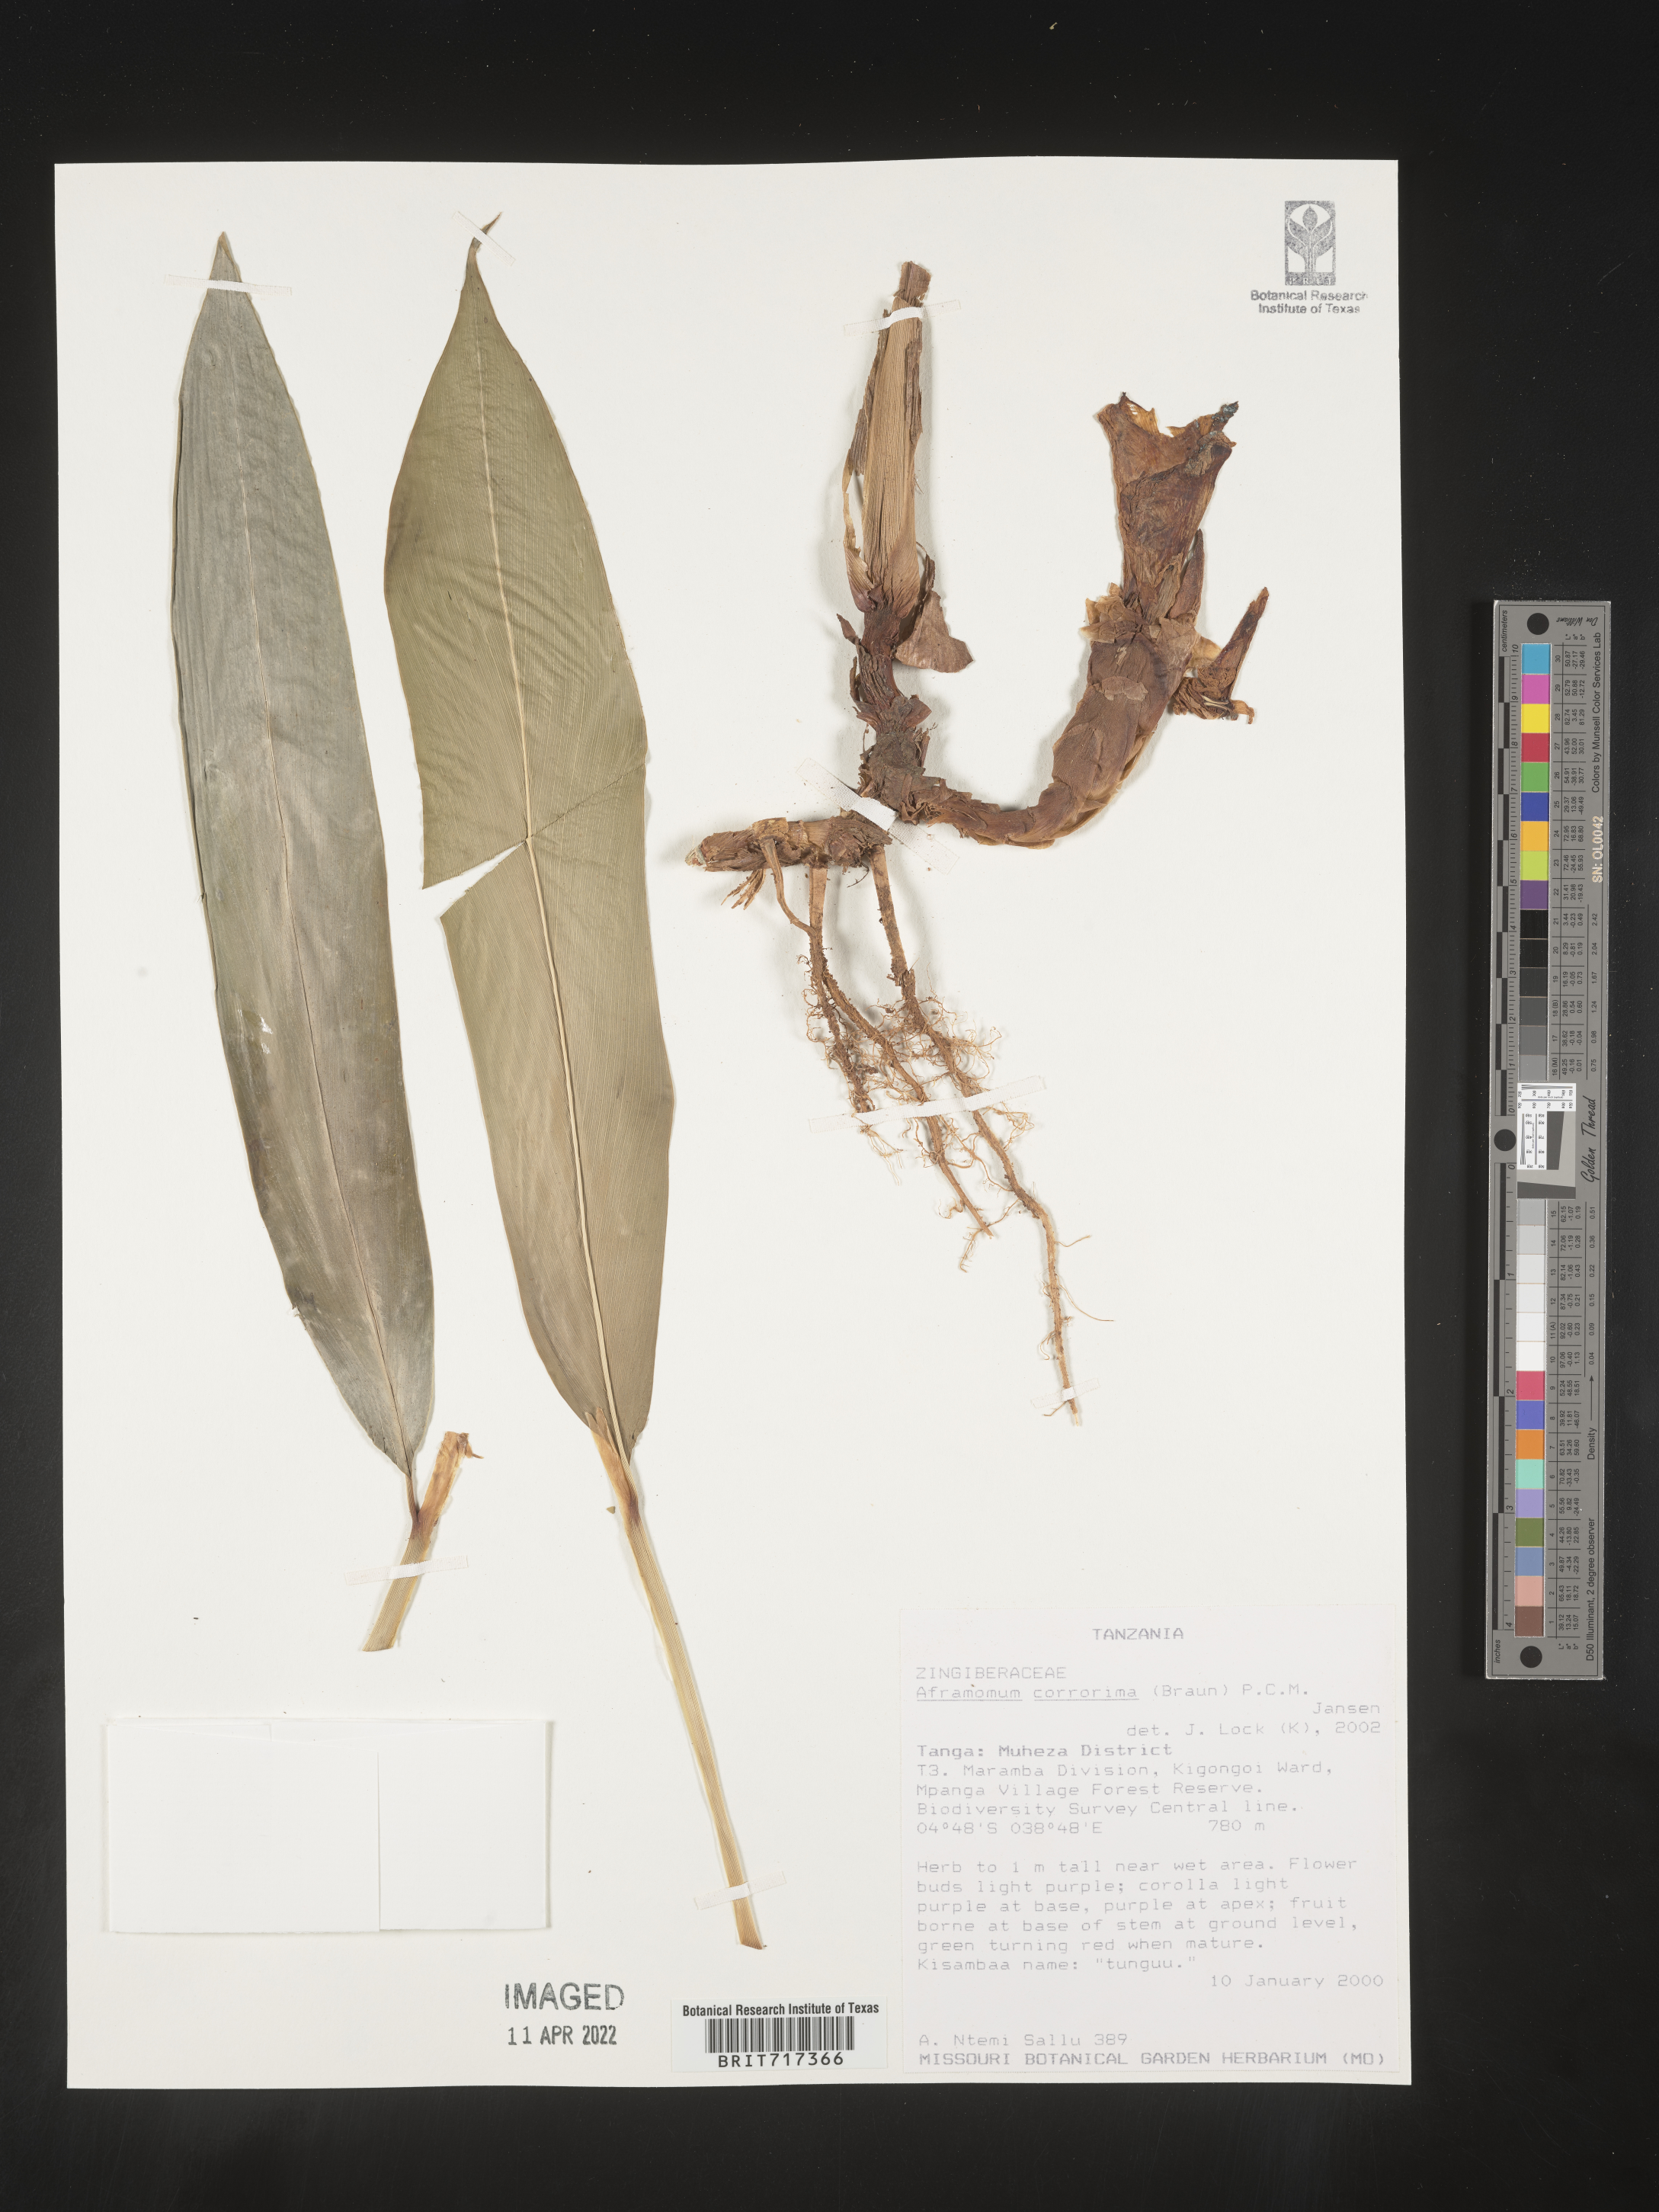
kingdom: Plantae
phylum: Tracheophyta
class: Liliopsida
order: Zingiberales
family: Zingiberaceae
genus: Aframomum
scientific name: Aframomum
